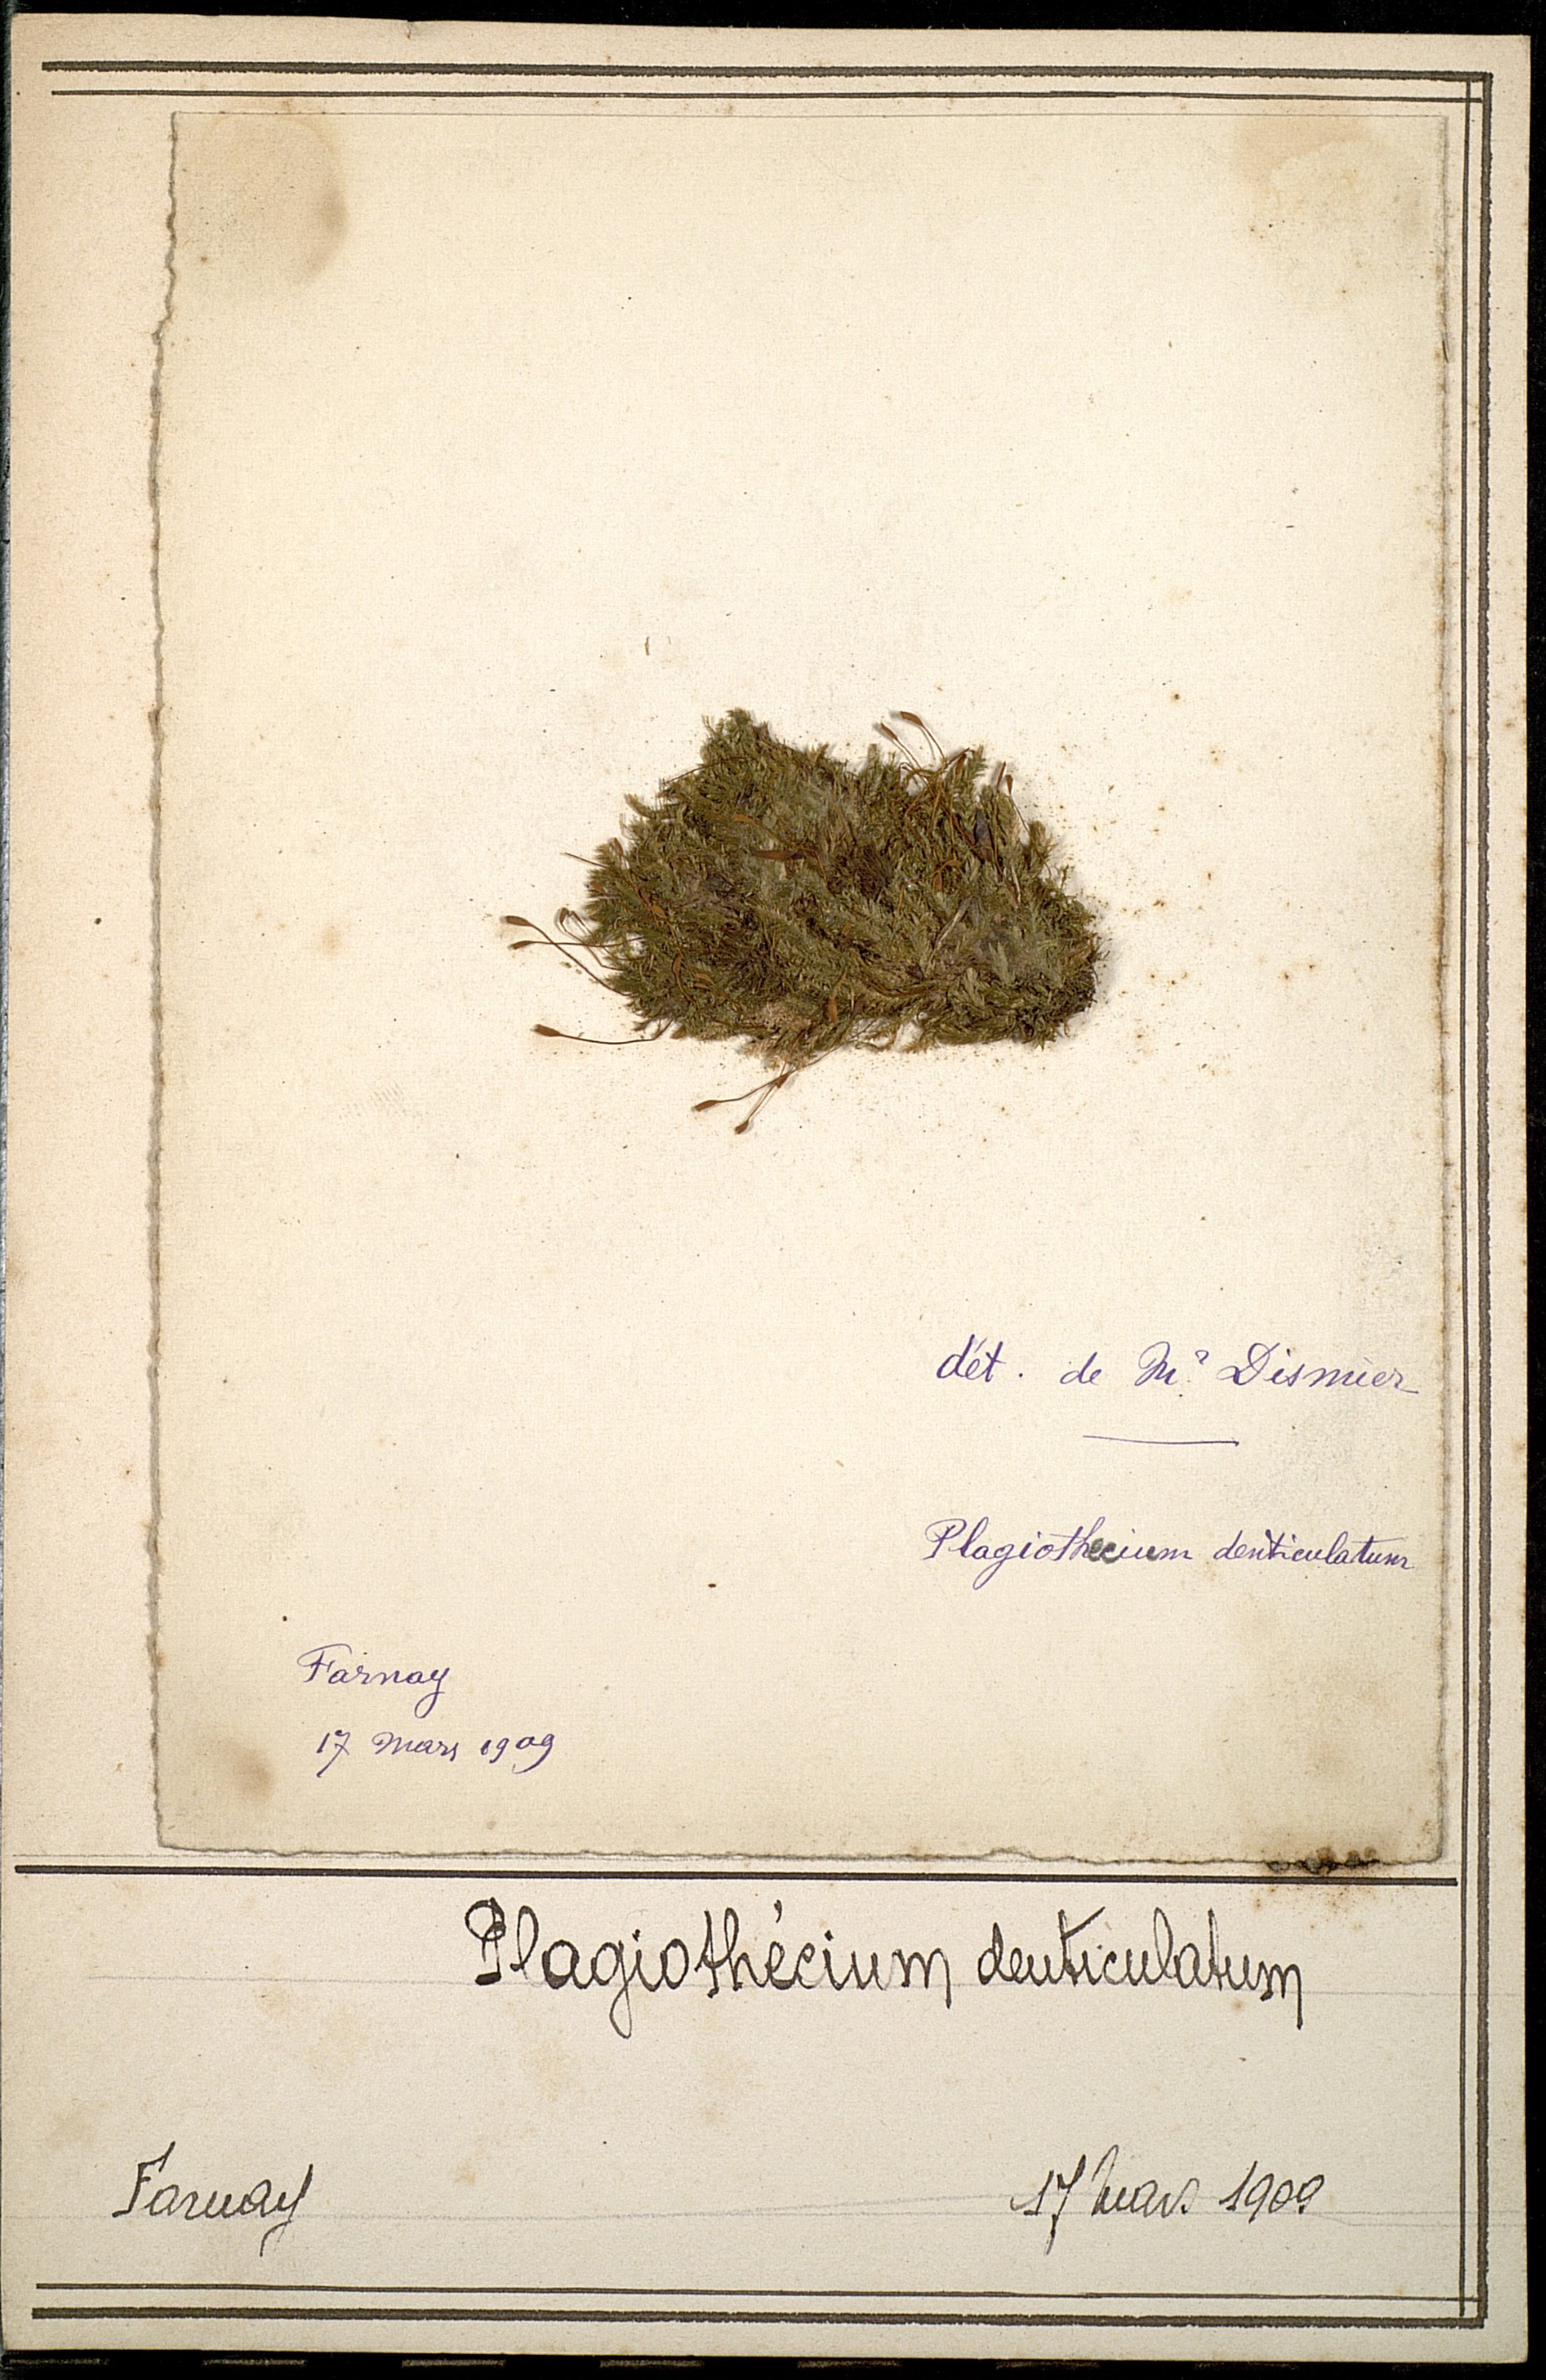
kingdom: Plantae
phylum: Bryophyta
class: Bryopsida
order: Hypnales
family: Plagiotheciaceae
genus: Plagiothecium
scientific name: Plagiothecium denticulatum
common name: Dented silk moss
